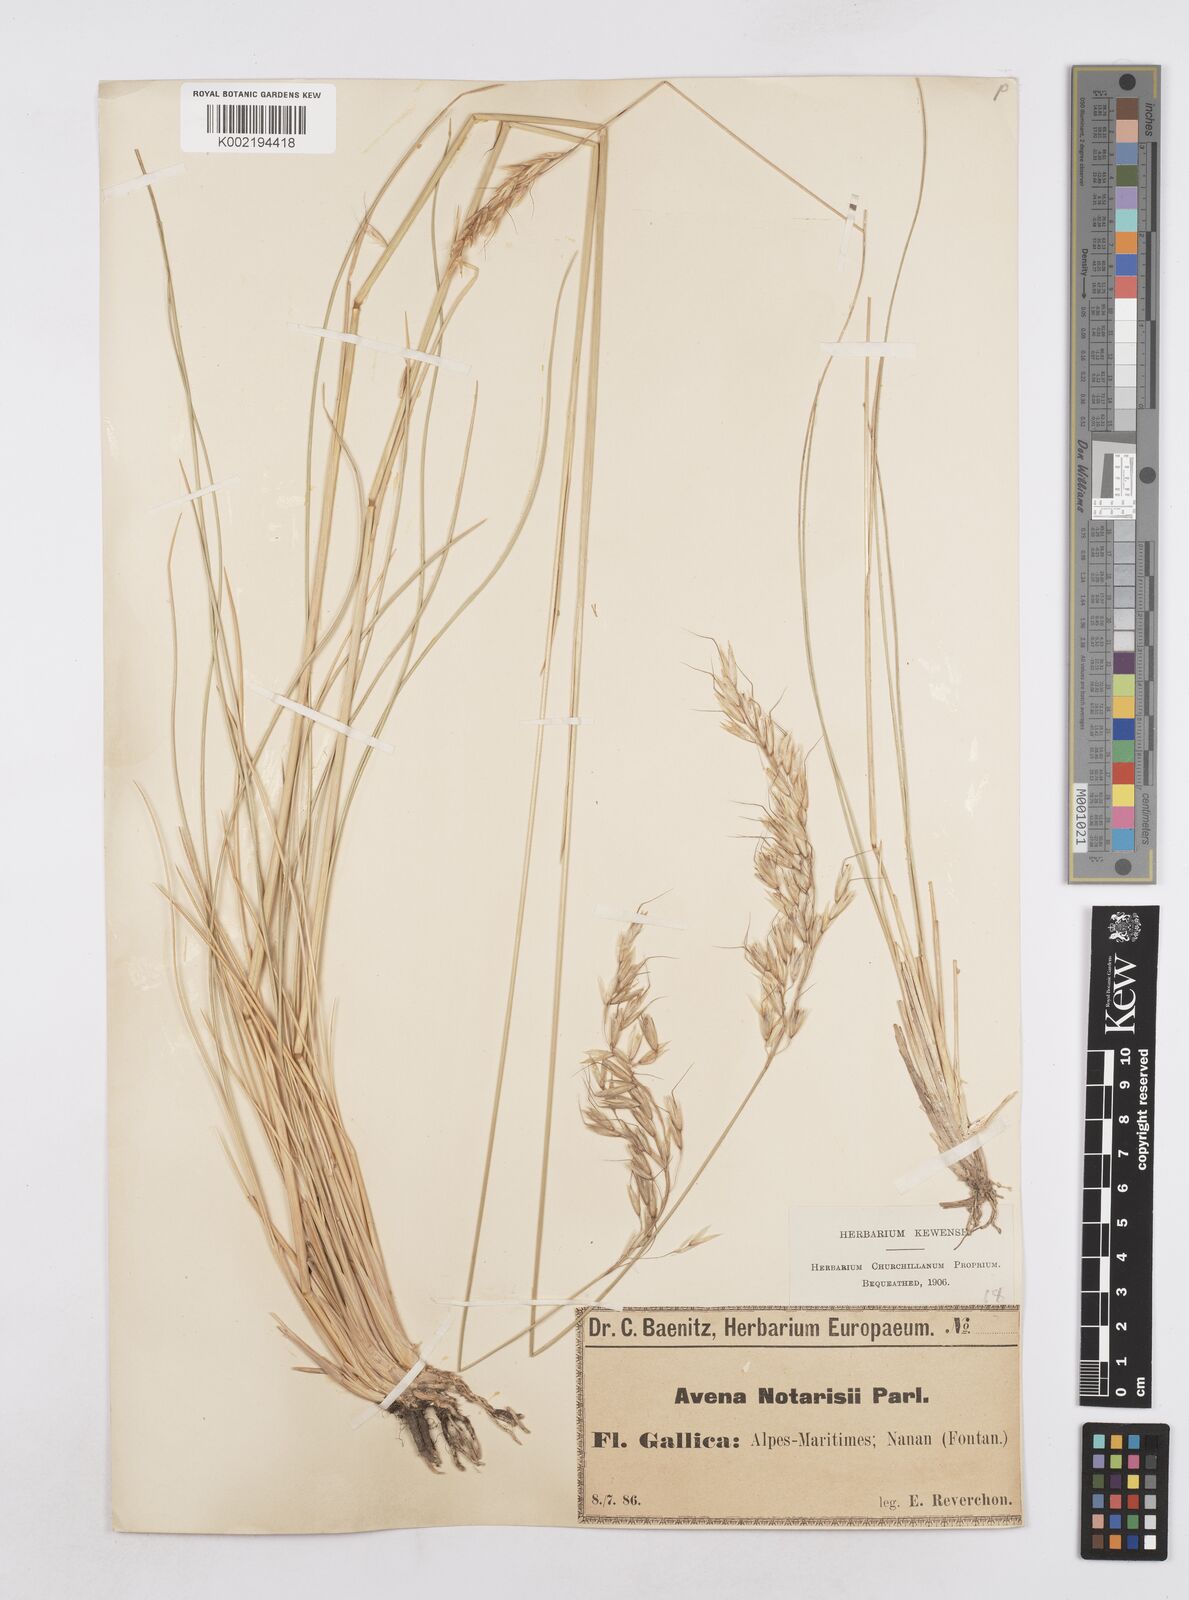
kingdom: Plantae
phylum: Tracheophyta
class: Liliopsida
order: Poales
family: Poaceae
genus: Helictotrichon
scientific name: Helictotrichon sempervirens
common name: Blue oat-grass
